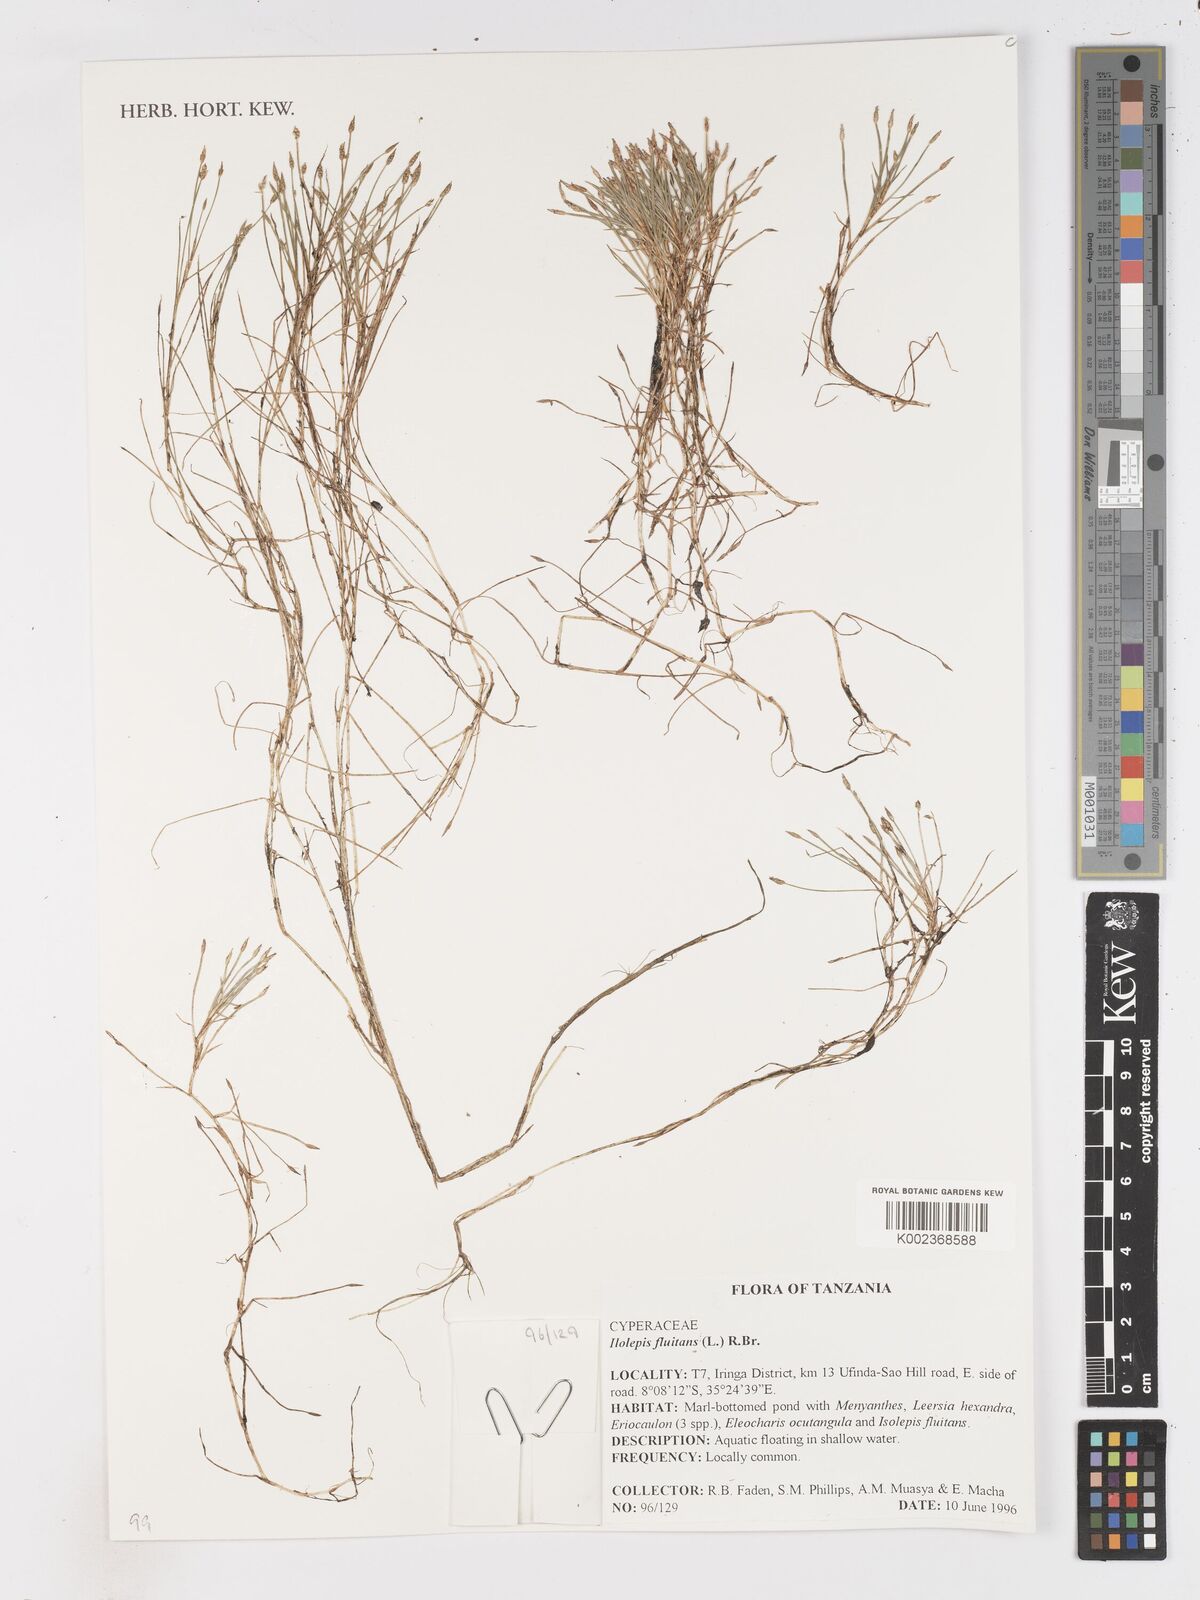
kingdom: Plantae
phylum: Tracheophyta
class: Liliopsida
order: Poales
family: Cyperaceae
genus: Isolepis
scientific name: Isolepis fluitans
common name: Floating club-rush
